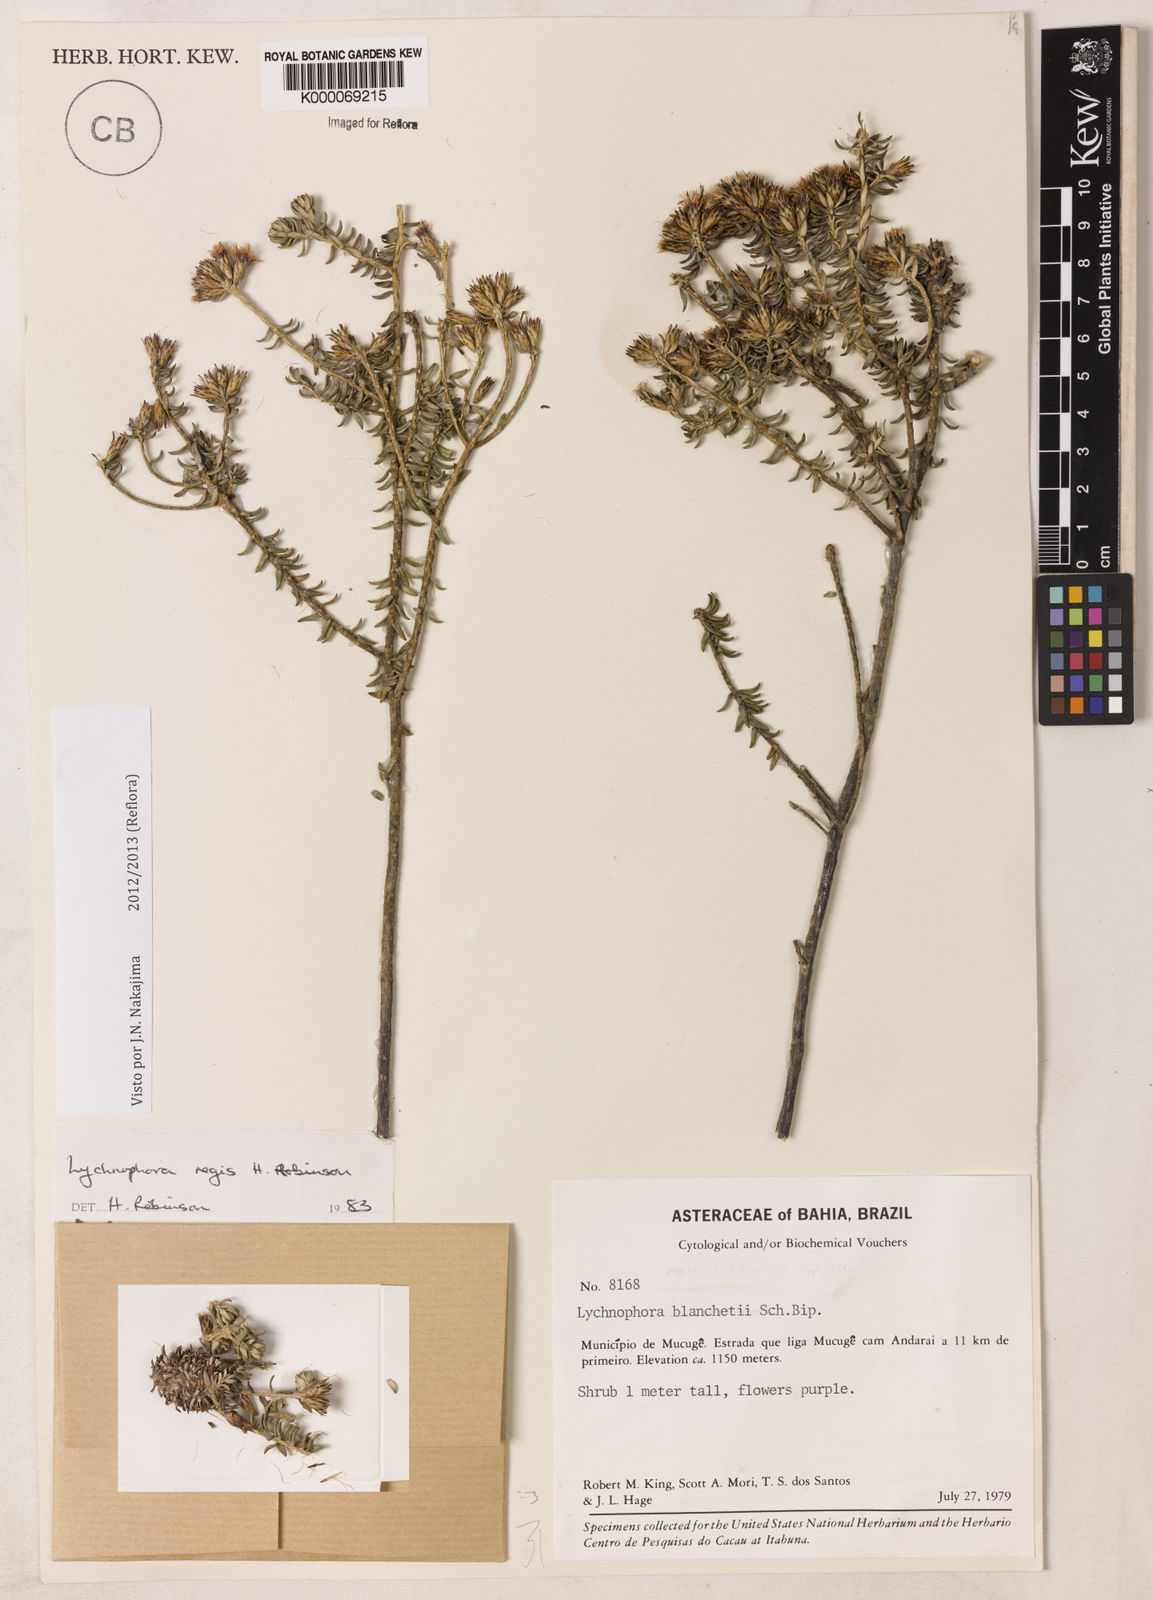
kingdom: Plantae
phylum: Tracheophyta
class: Magnoliopsida
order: Asterales
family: Asteraceae
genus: Lychnophorella
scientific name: Lychnophorella regis
